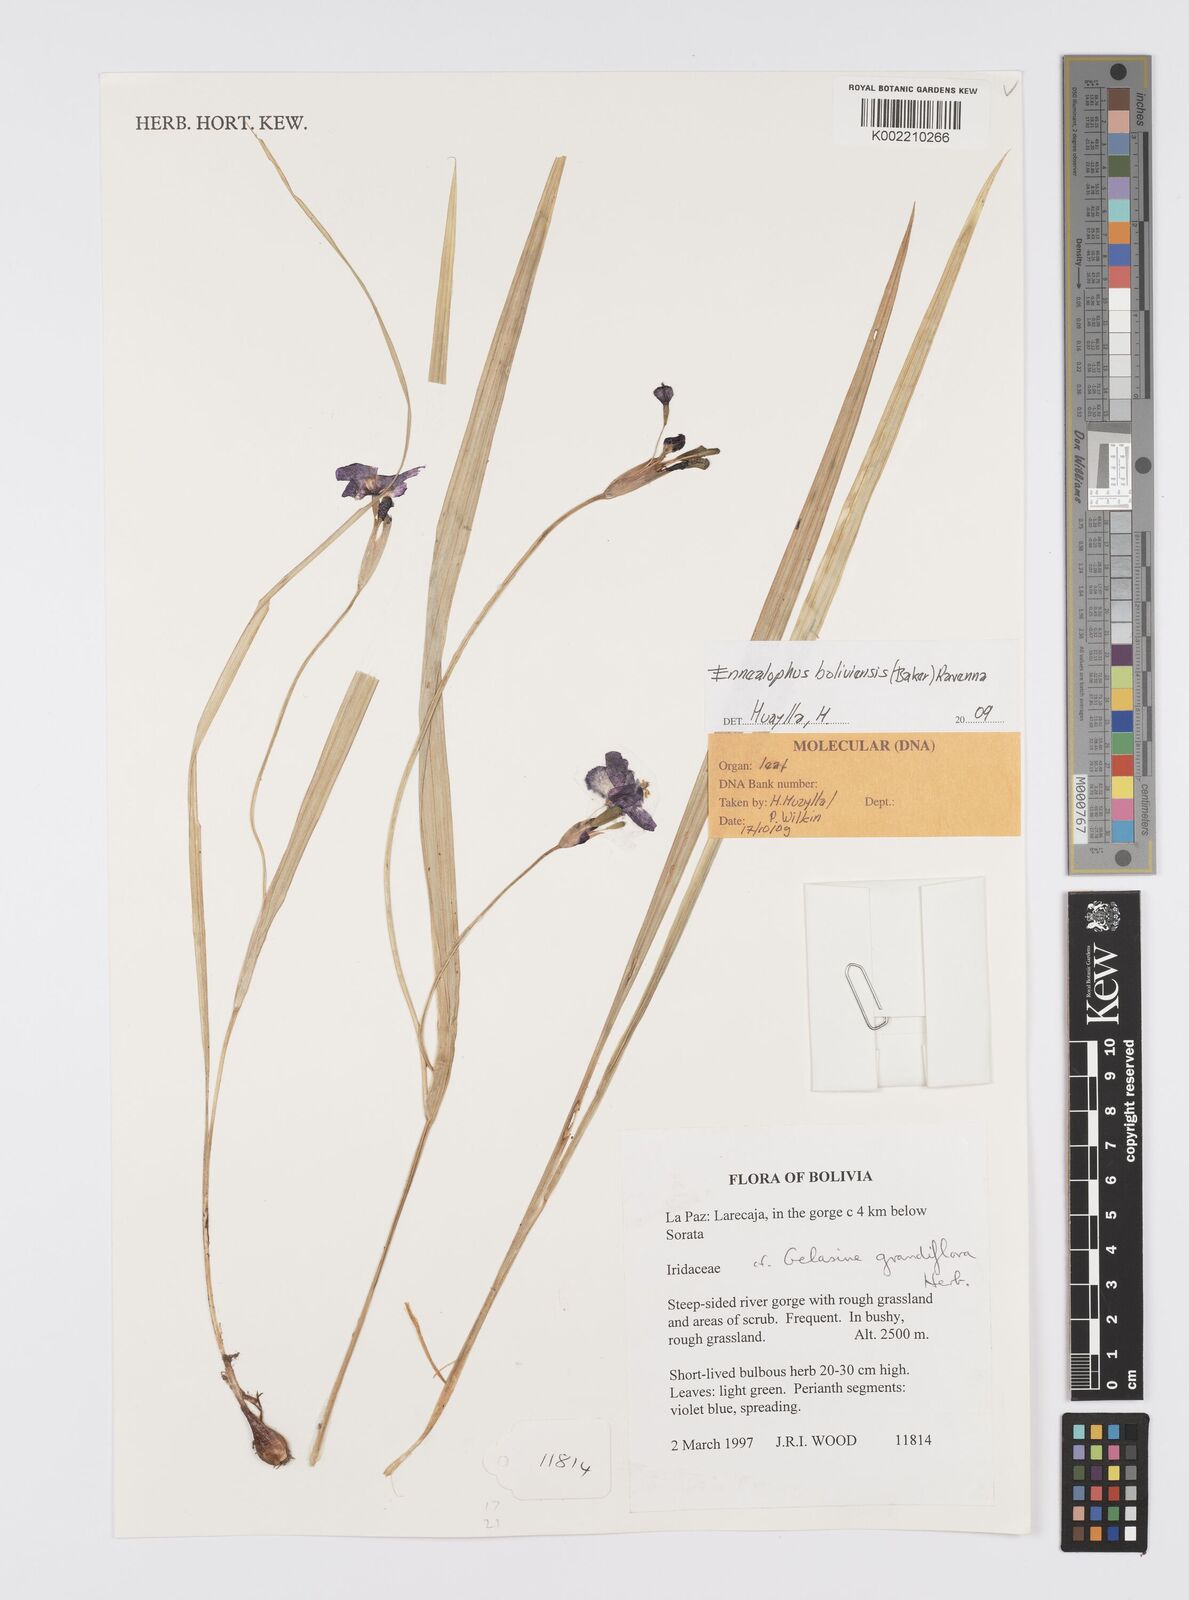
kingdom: Plantae
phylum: Tracheophyta
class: Liliopsida
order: Asparagales
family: Iridaceae
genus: Ennealophus
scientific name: Ennealophus boliviensis
